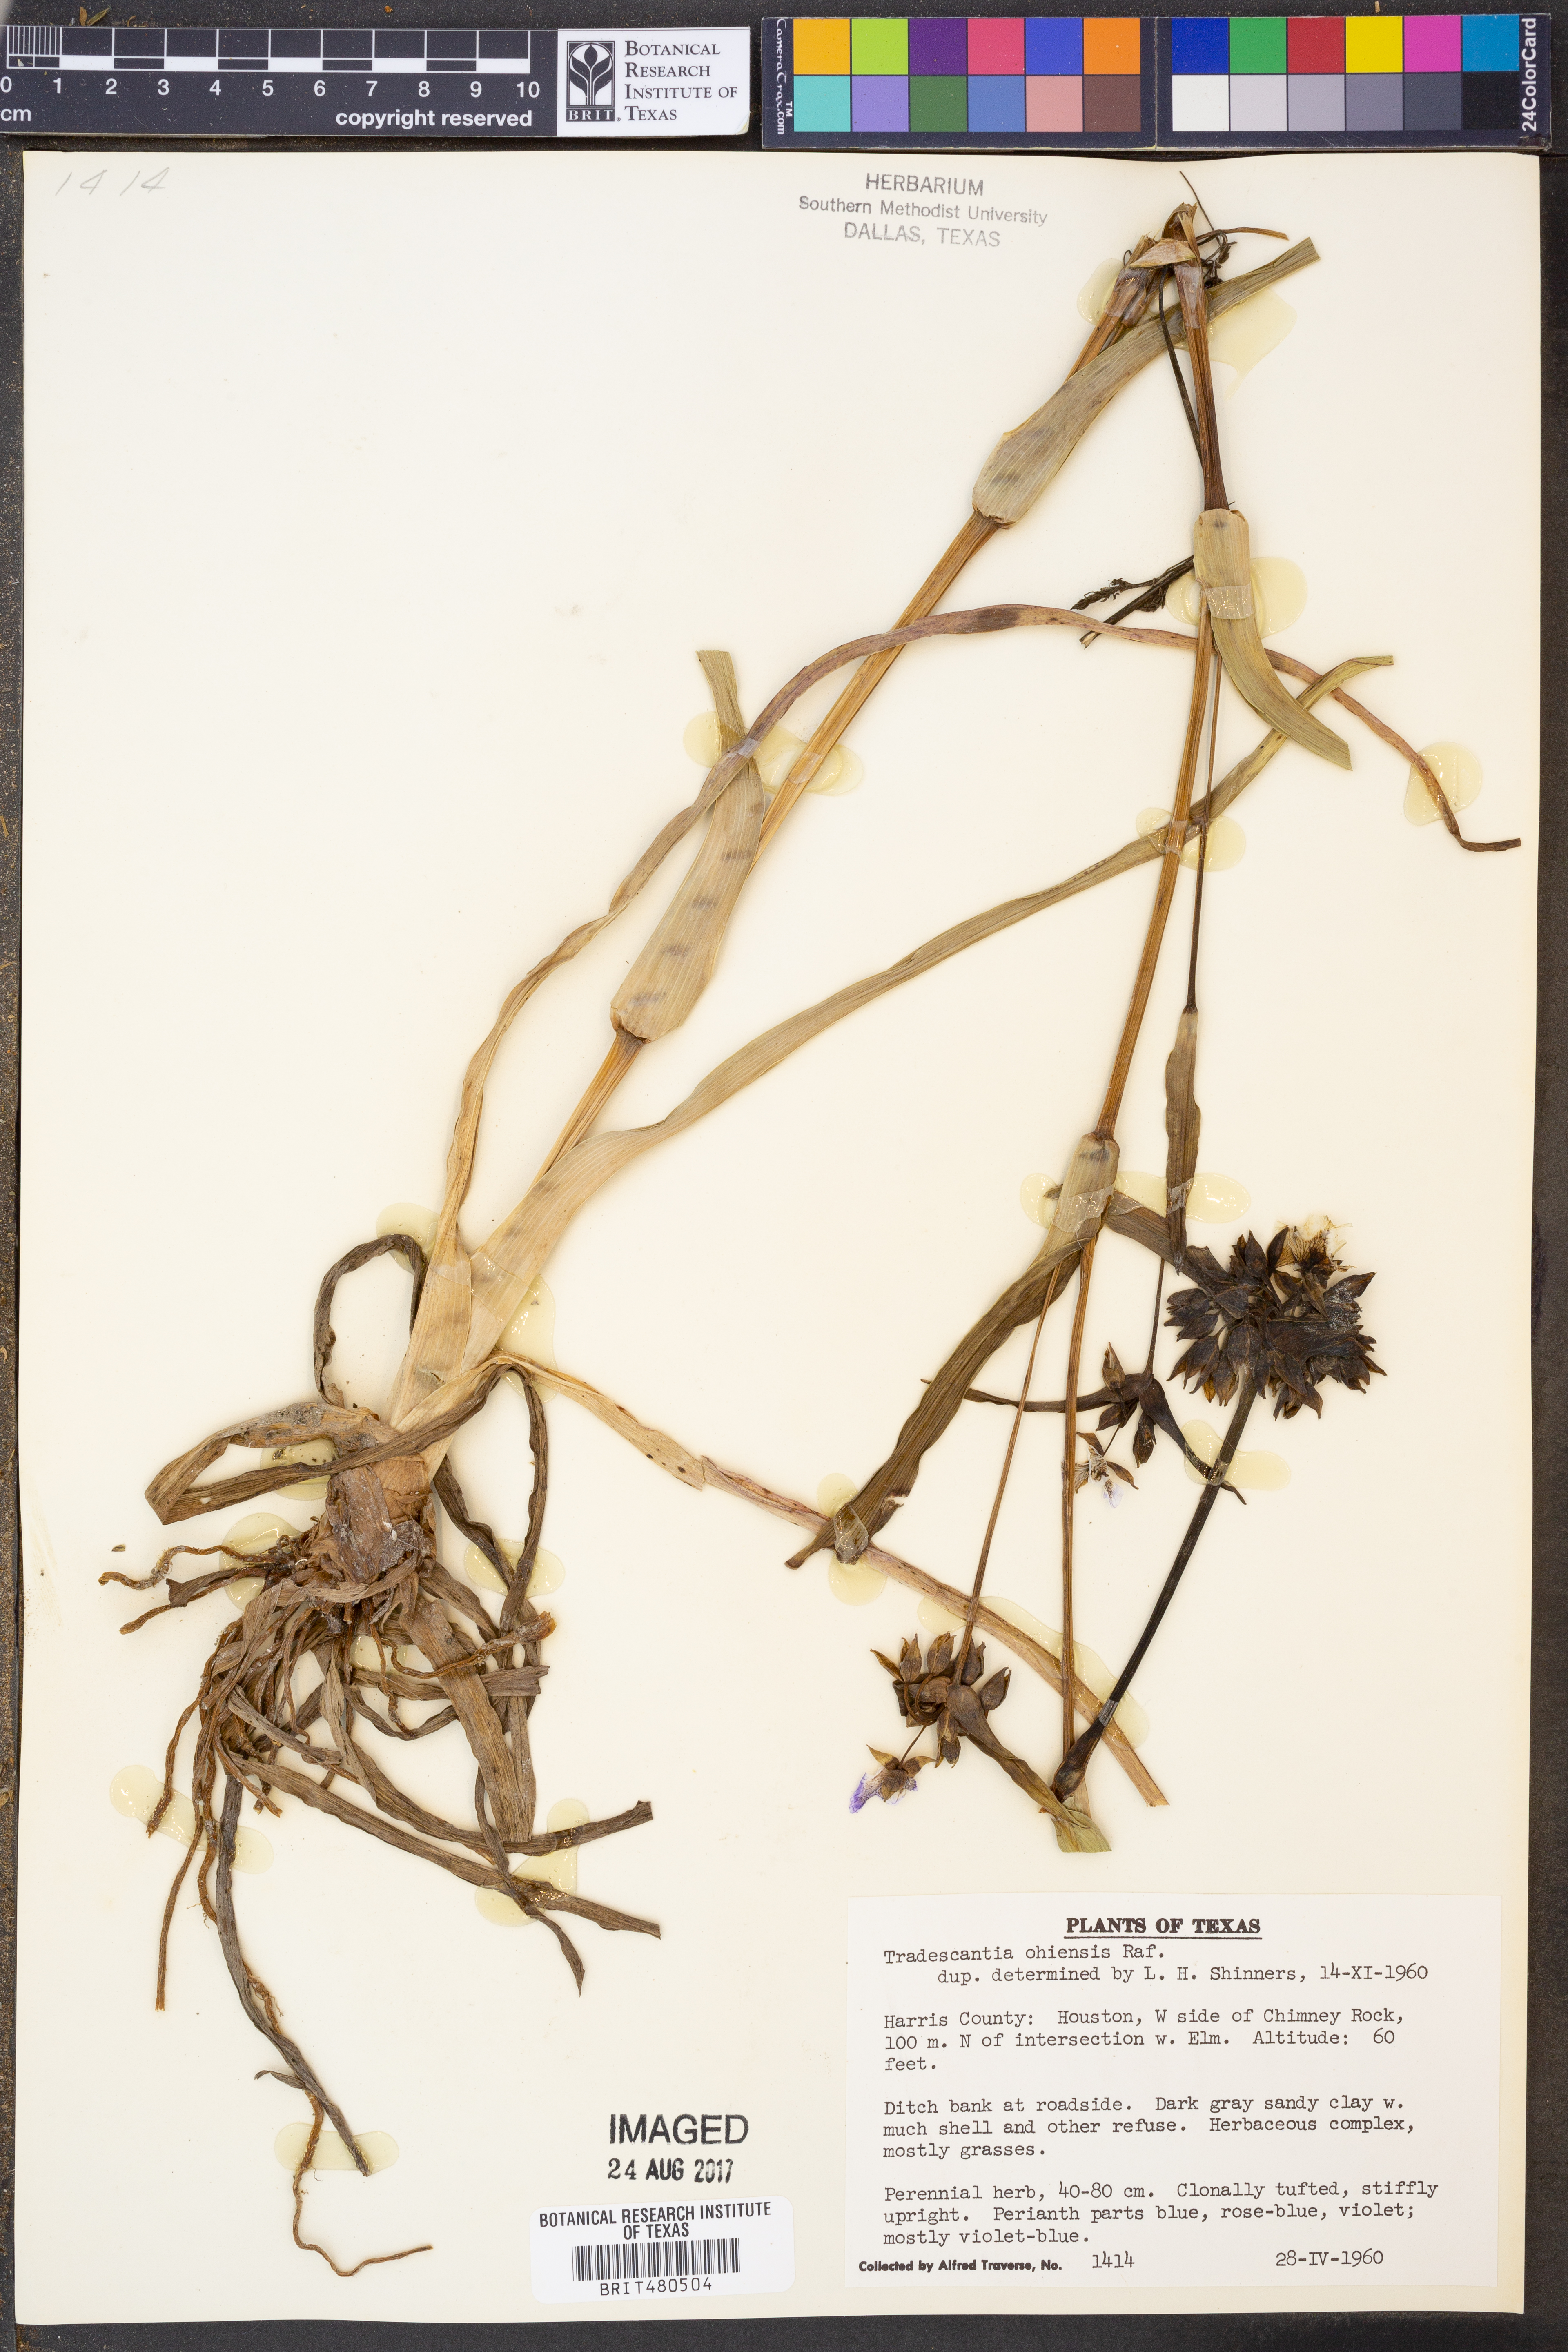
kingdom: Plantae
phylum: Tracheophyta
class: Liliopsida
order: Commelinales
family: Commelinaceae
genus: Tradescantia
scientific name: Tradescantia ohiensis
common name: Ohio spiderwort
